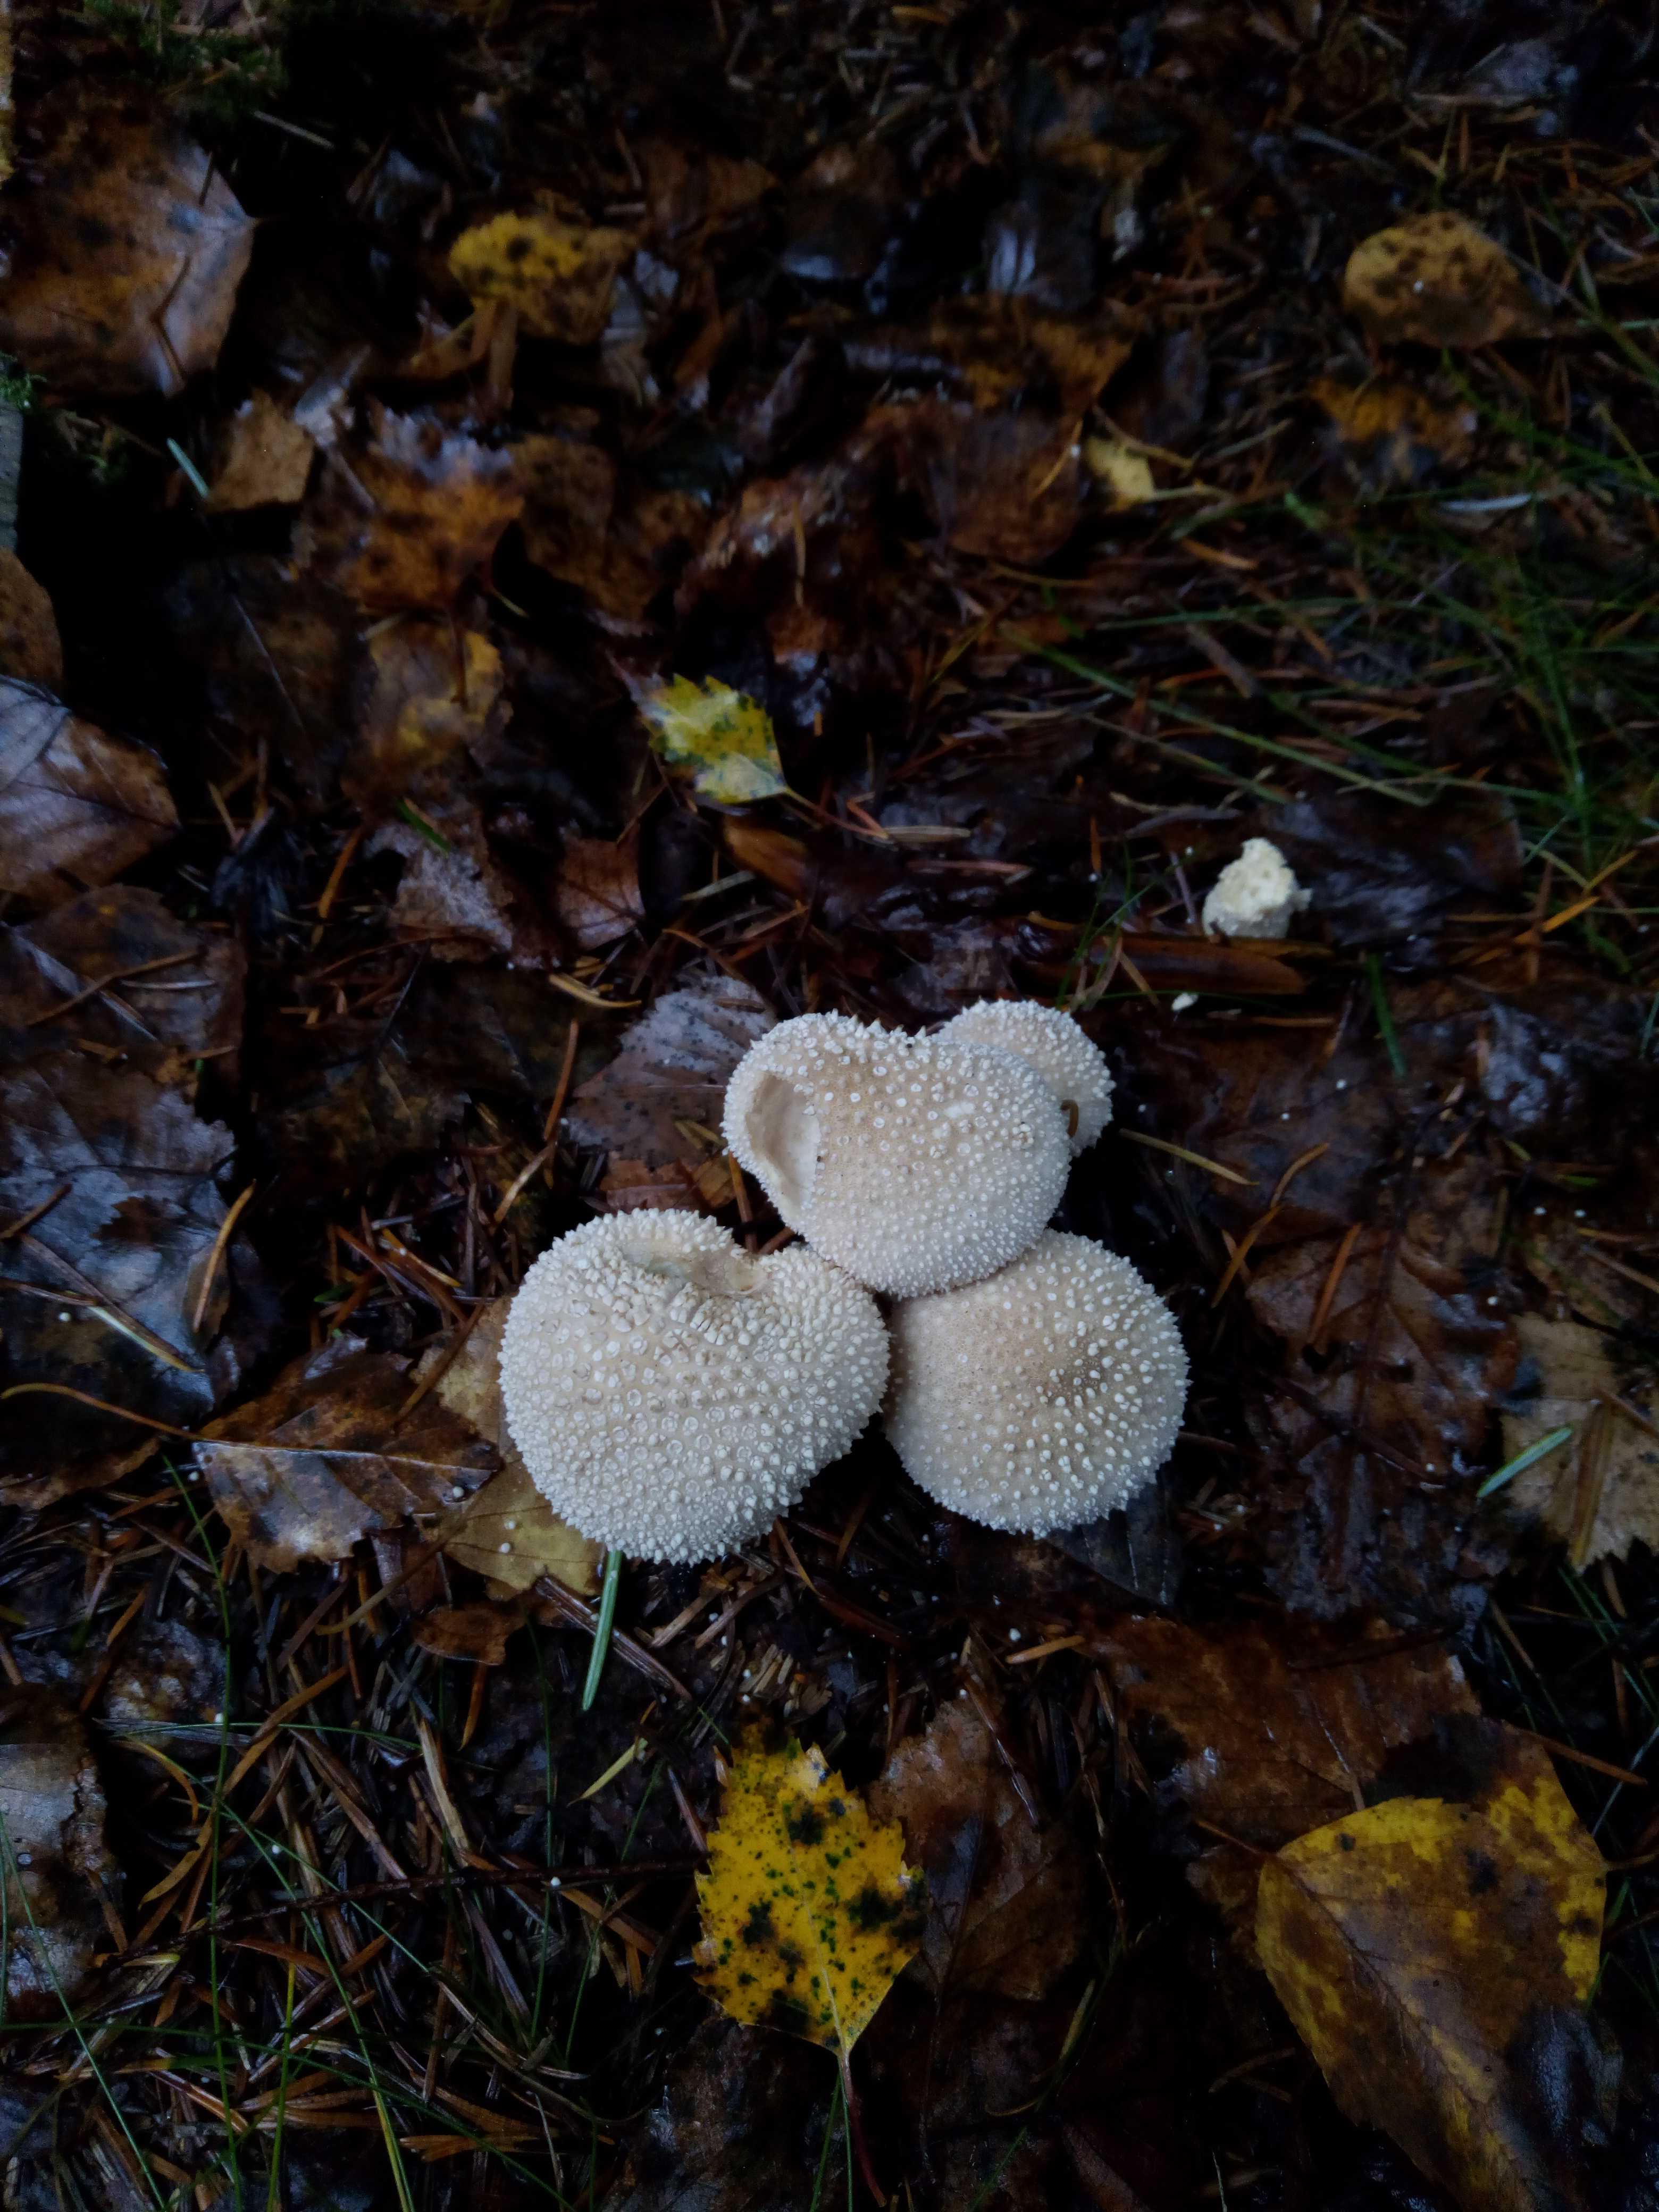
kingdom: Fungi
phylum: Basidiomycota
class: Agaricomycetes
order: Agaricales
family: Lycoperdaceae
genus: Lycoperdon
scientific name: Lycoperdon perlatum
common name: krystal-støvbold
